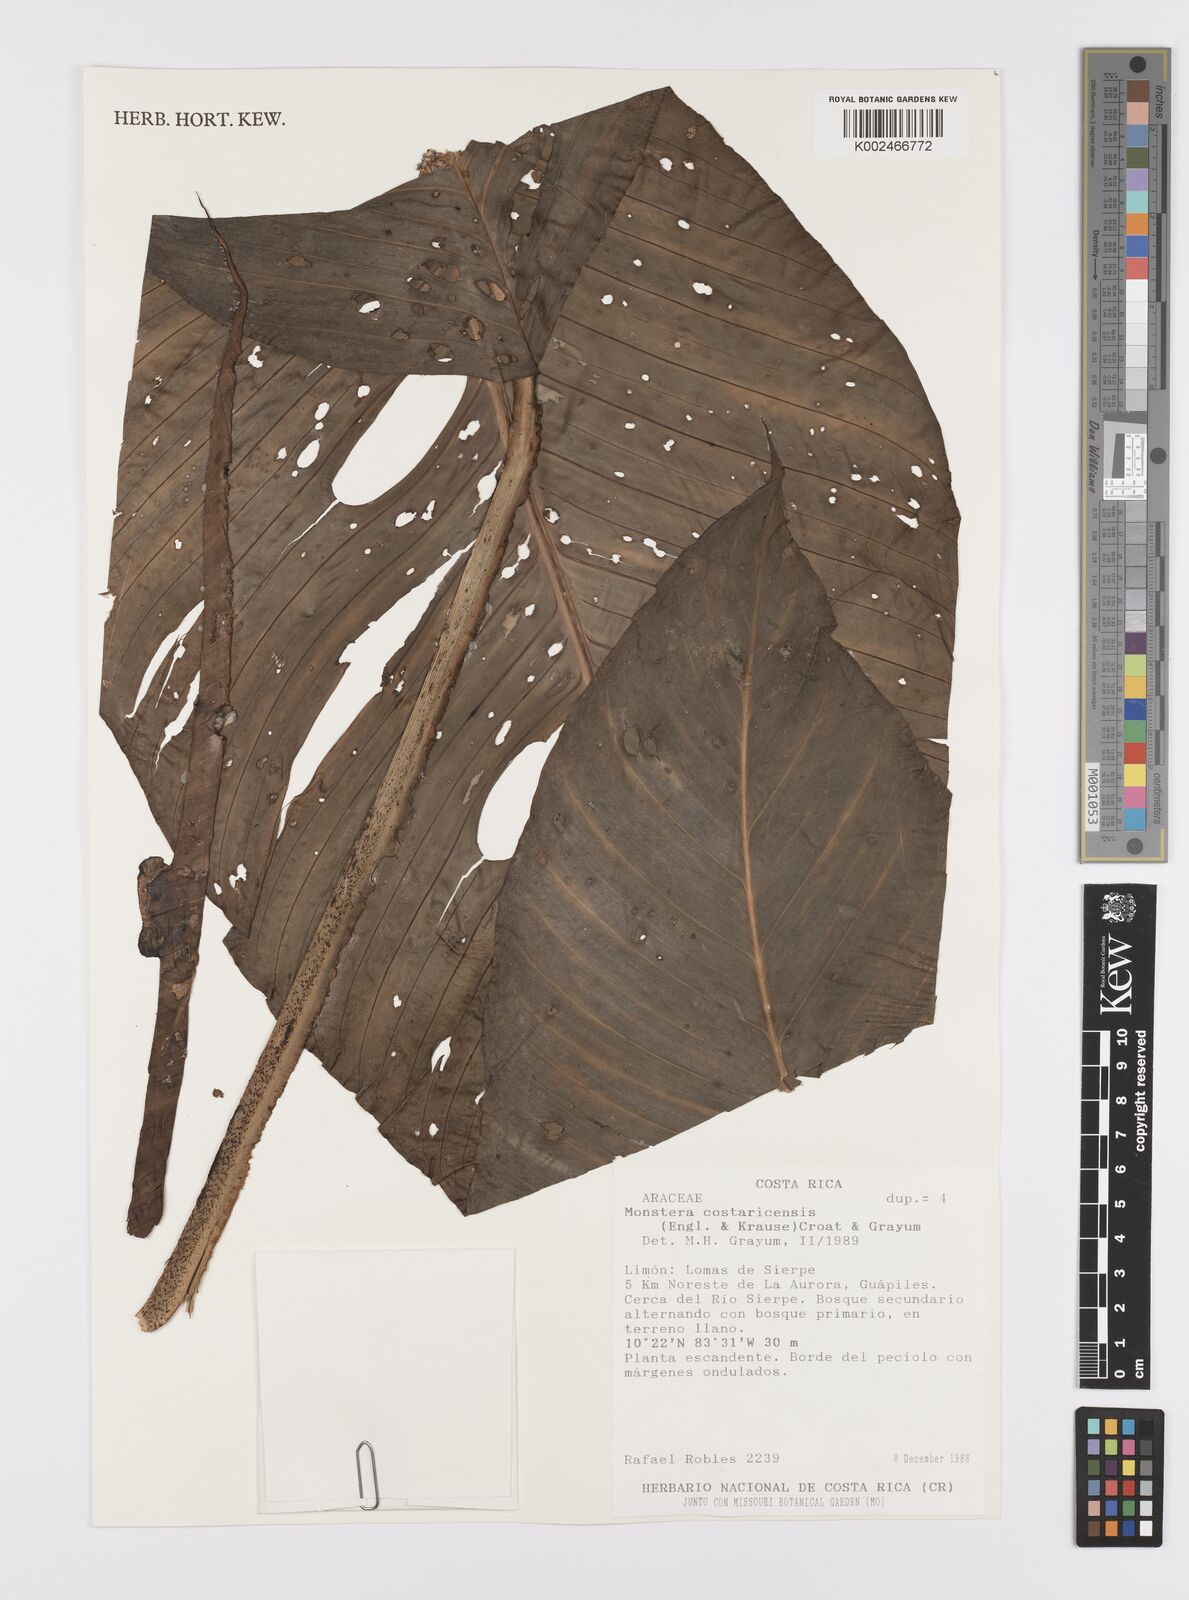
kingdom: Plantae
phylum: Tracheophyta
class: Liliopsida
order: Alismatales
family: Araceae
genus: Monstera
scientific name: Monstera costaricensis
